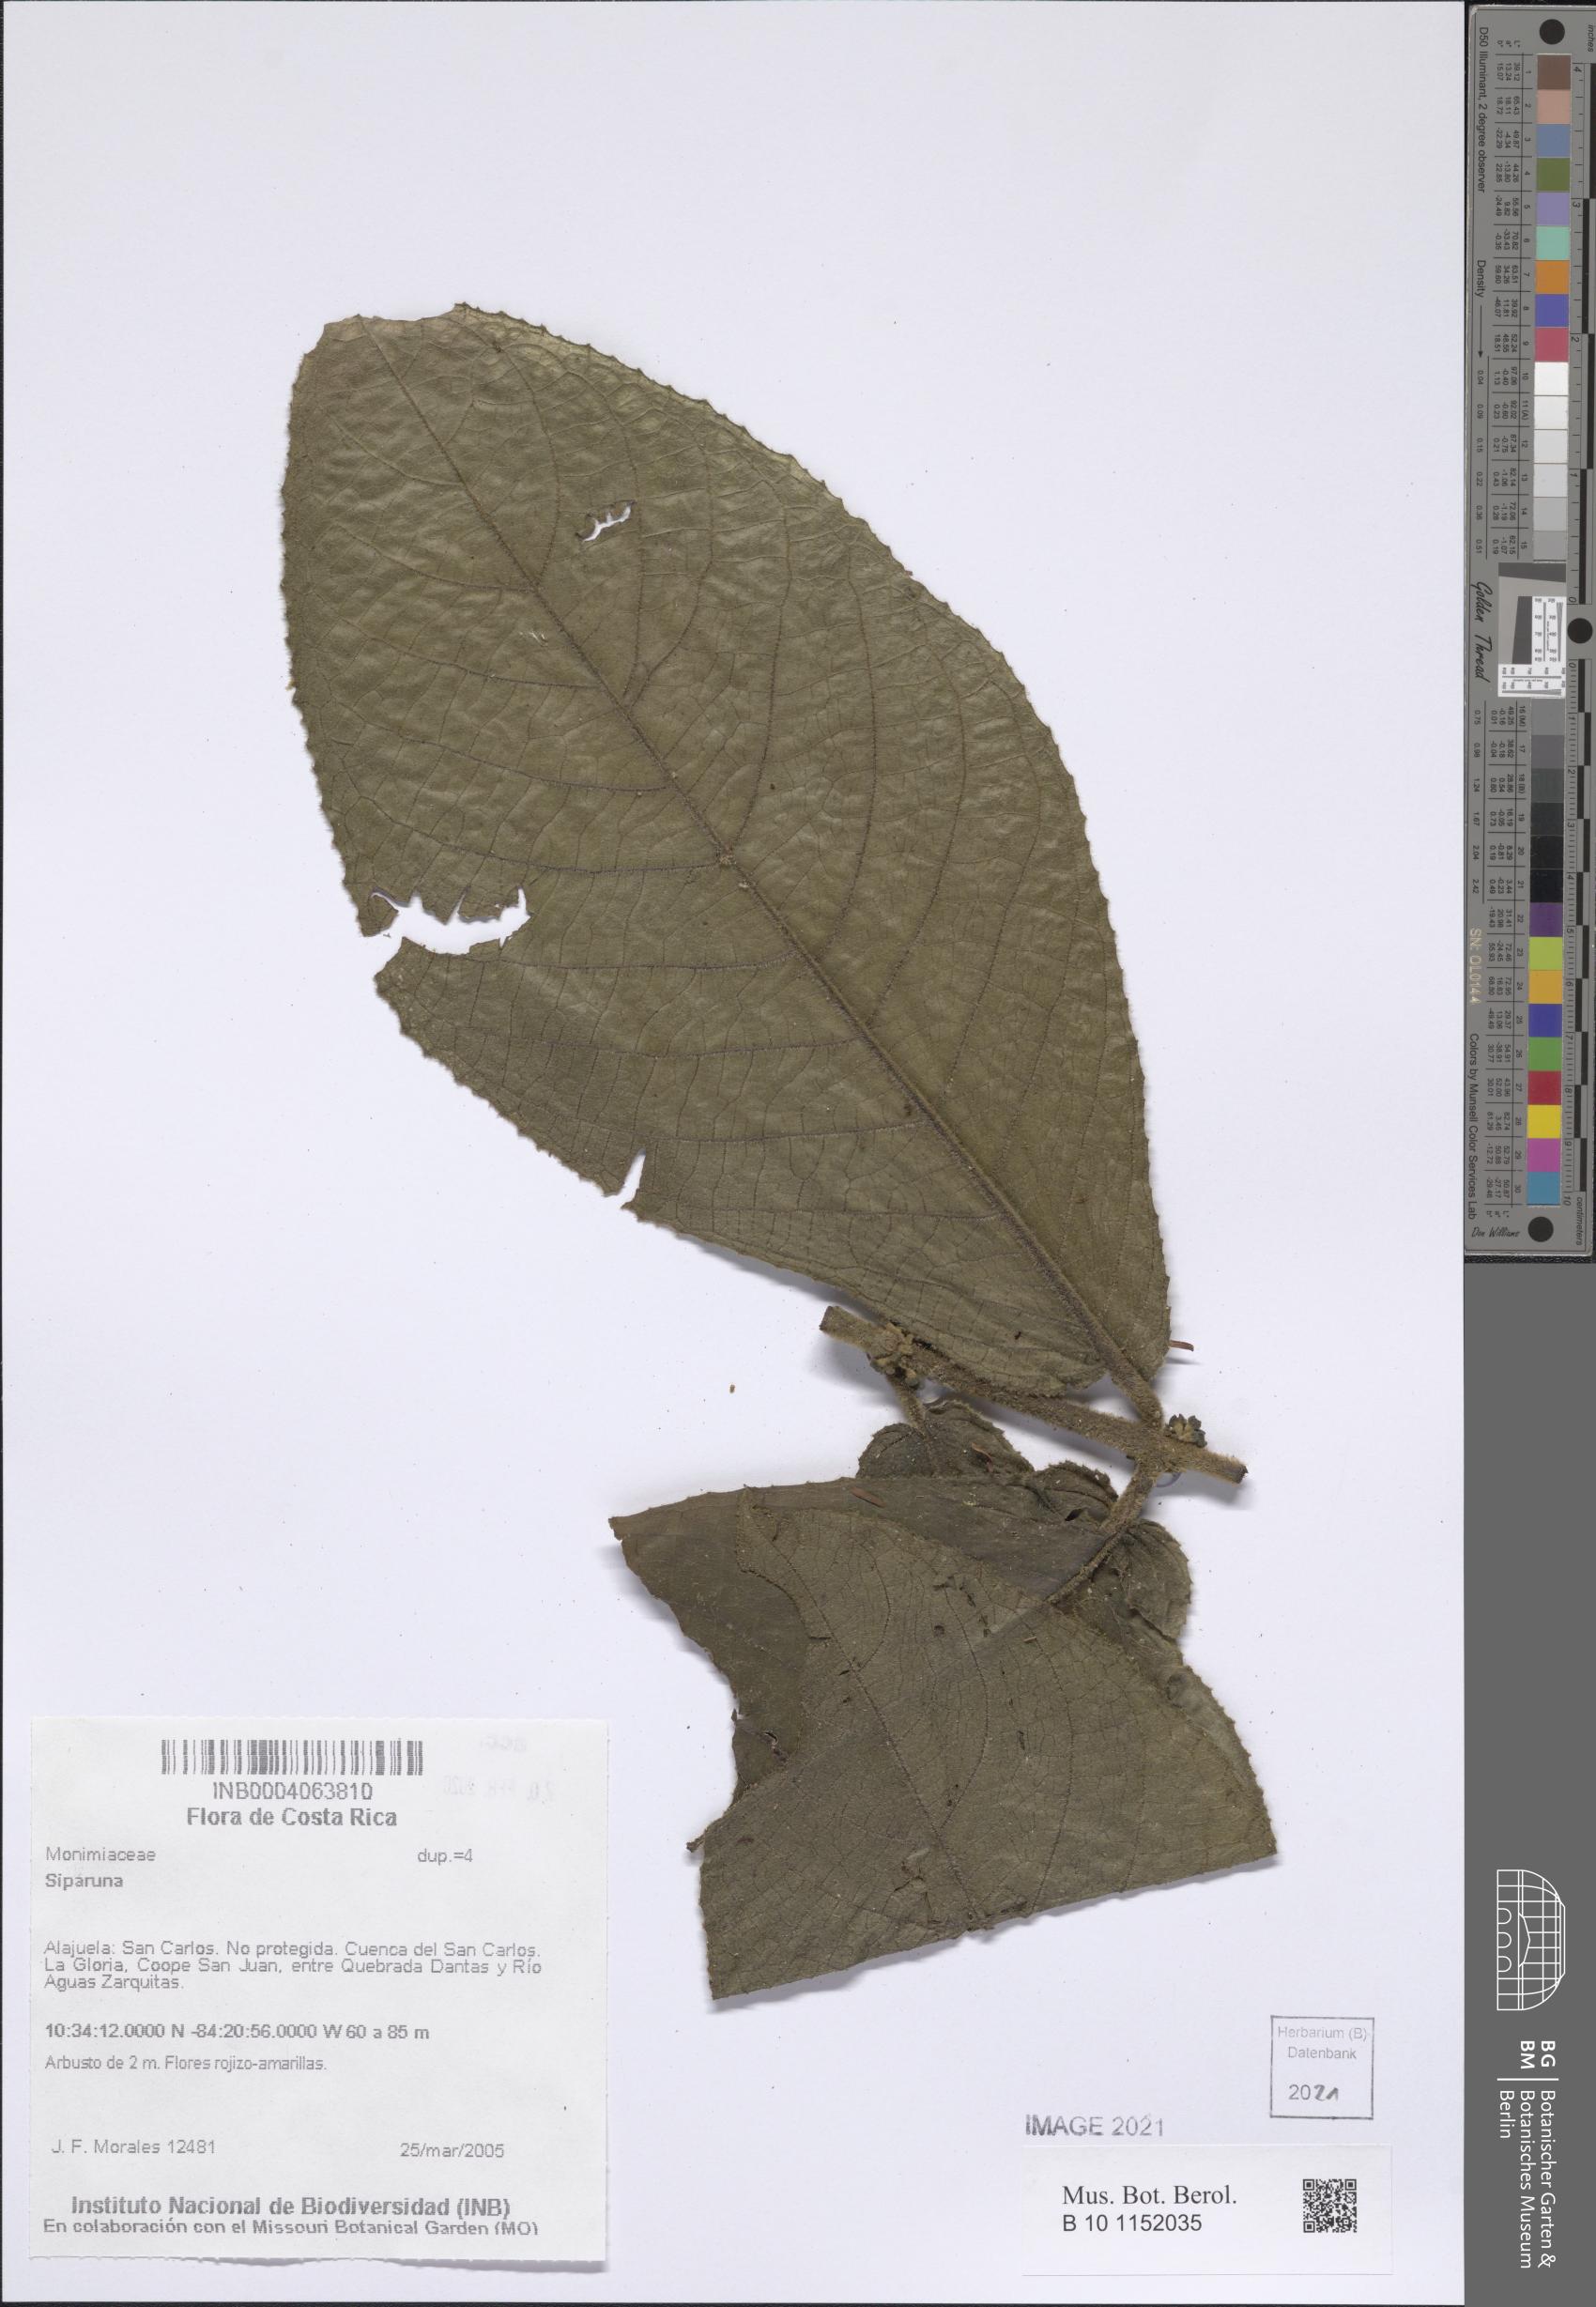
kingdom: Plantae
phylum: Tracheophyta
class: Magnoliopsida
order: Laurales
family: Siparunaceae
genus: Siparuna
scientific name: Siparuna
